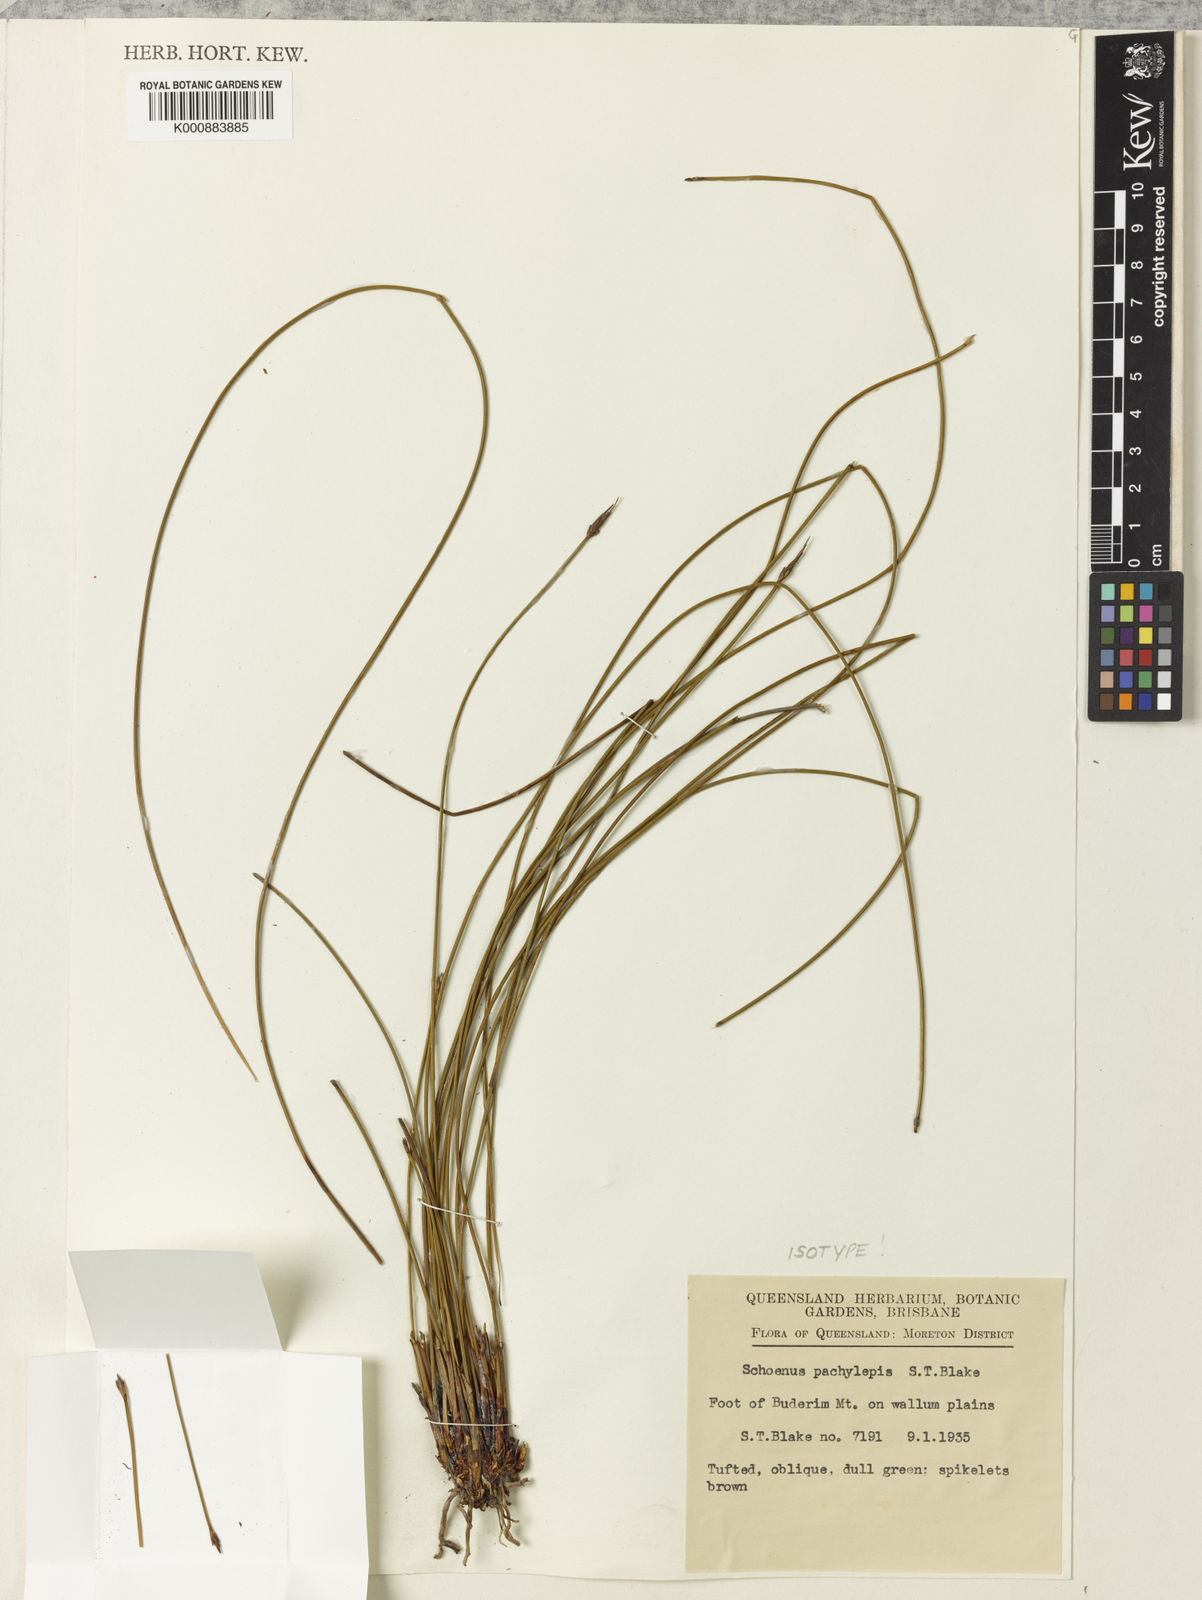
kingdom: Plantae
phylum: Tracheophyta
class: Liliopsida
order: Poales
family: Cyperaceae
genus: Schoenus
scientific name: Schoenus lepidosperma
